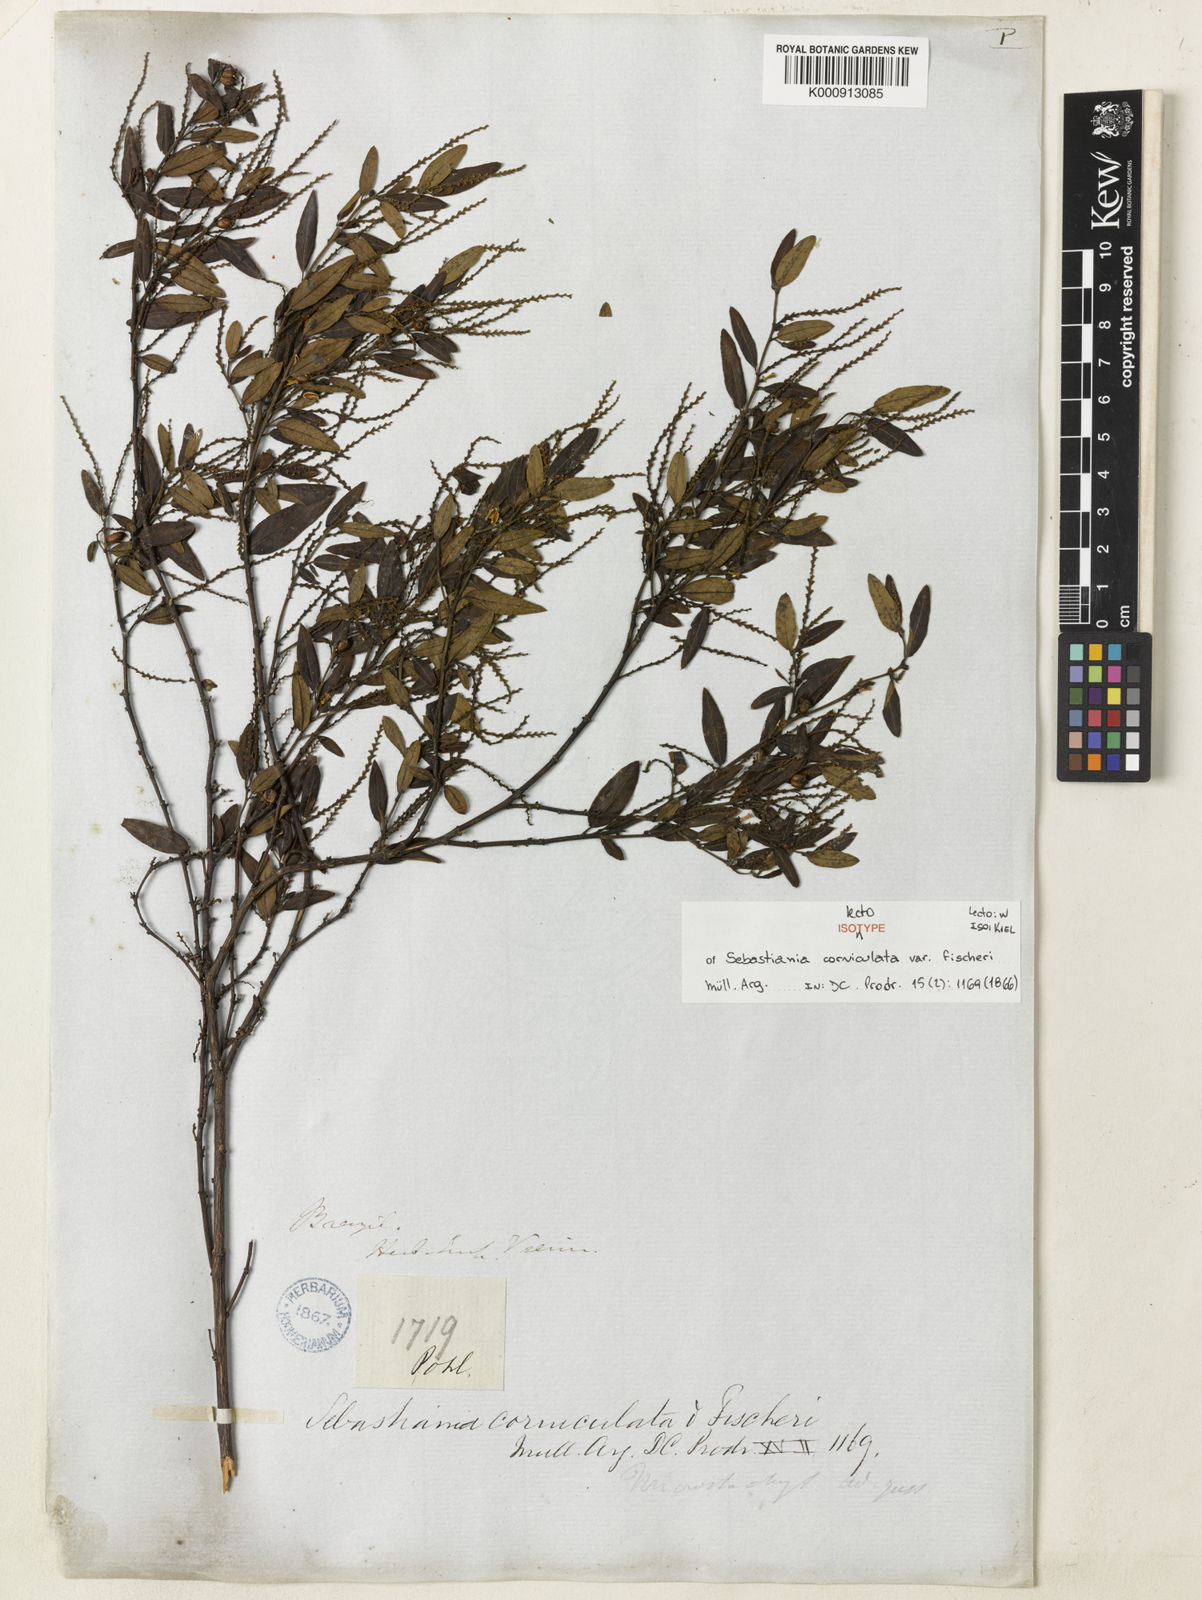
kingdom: Plantae
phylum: Tracheophyta
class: Magnoliopsida
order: Malpighiales
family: Euphorbiaceae
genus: Microstachys
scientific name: Microstachys corniculata
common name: Hato tejas
